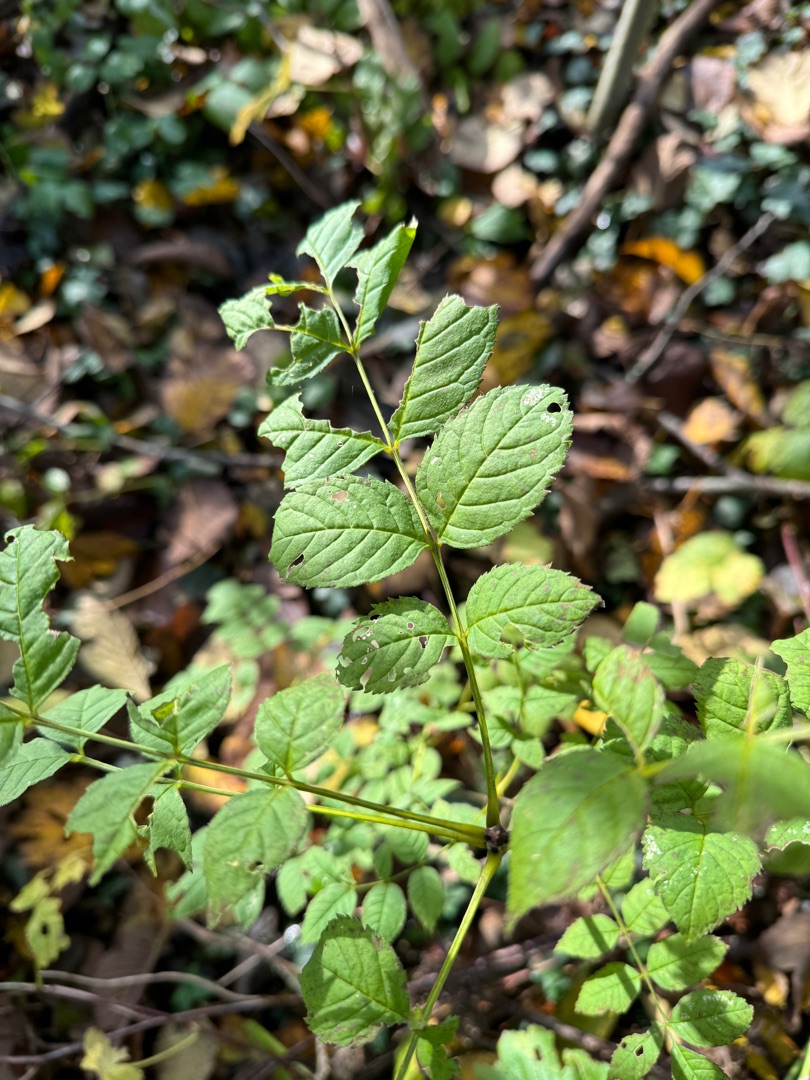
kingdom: Plantae
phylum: Tracheophyta
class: Magnoliopsida
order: Lamiales
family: Oleaceae
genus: Fraxinus
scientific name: Fraxinus excelsior
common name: Ask
